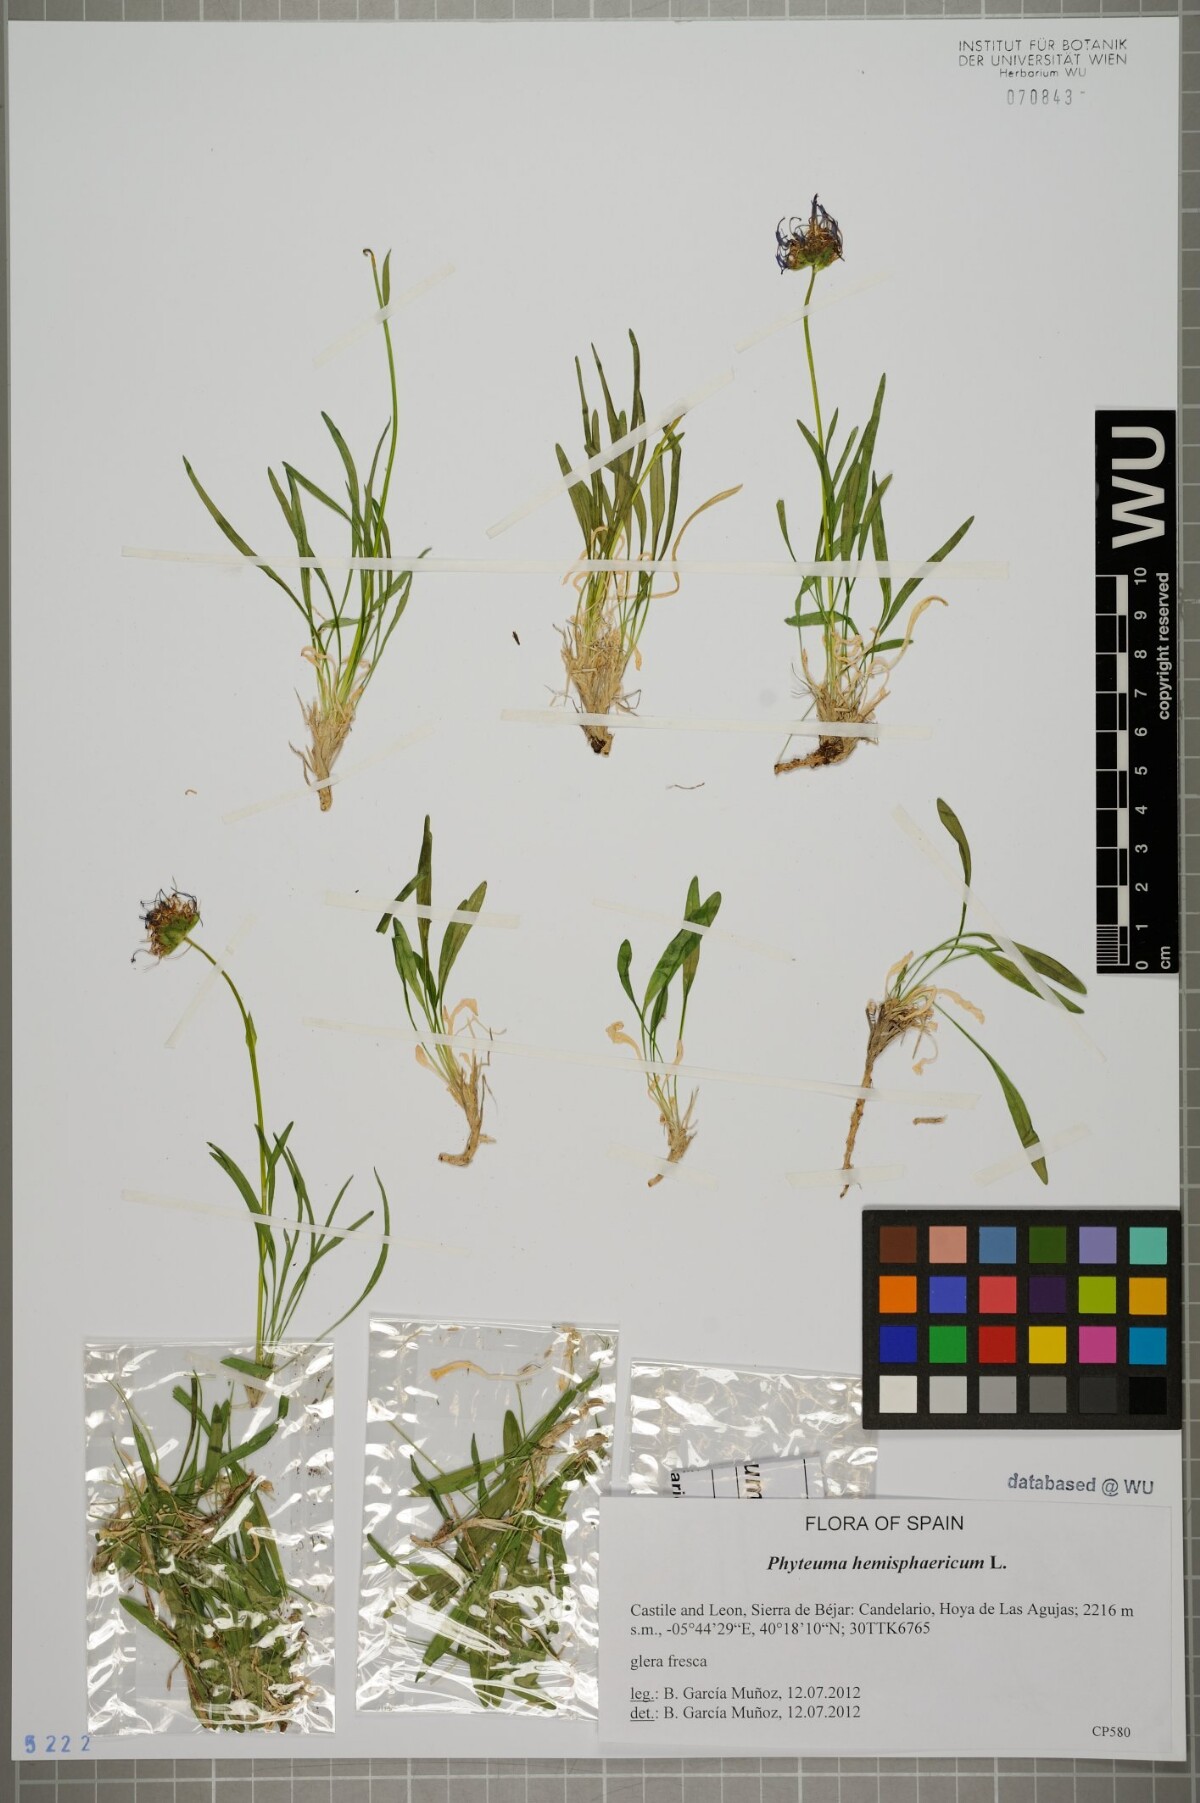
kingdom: Plantae
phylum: Tracheophyta
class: Magnoliopsida
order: Asterales
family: Campanulaceae
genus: Phyteuma
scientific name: Phyteuma hemisphaericum
